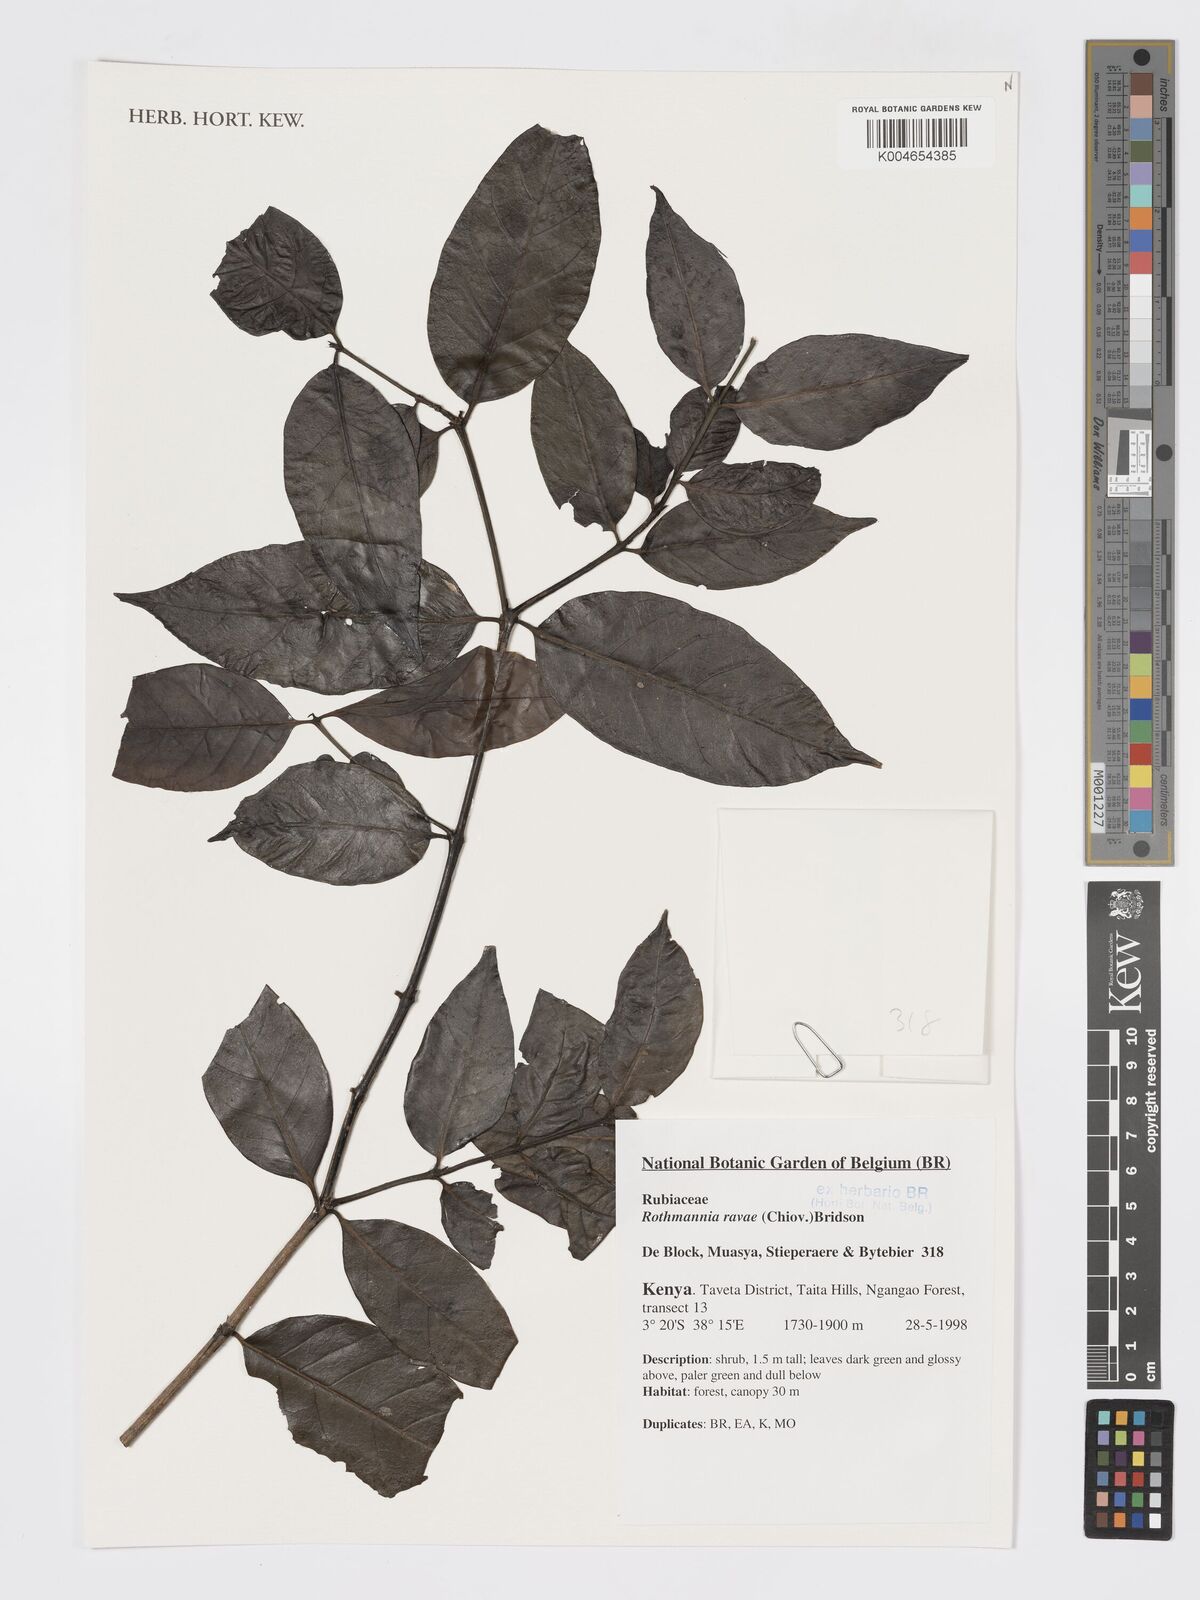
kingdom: Plantae
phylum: Tracheophyta
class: Magnoliopsida
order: Gentianales
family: Rubiaceae
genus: Rothmannia
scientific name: Rothmannia ravae
